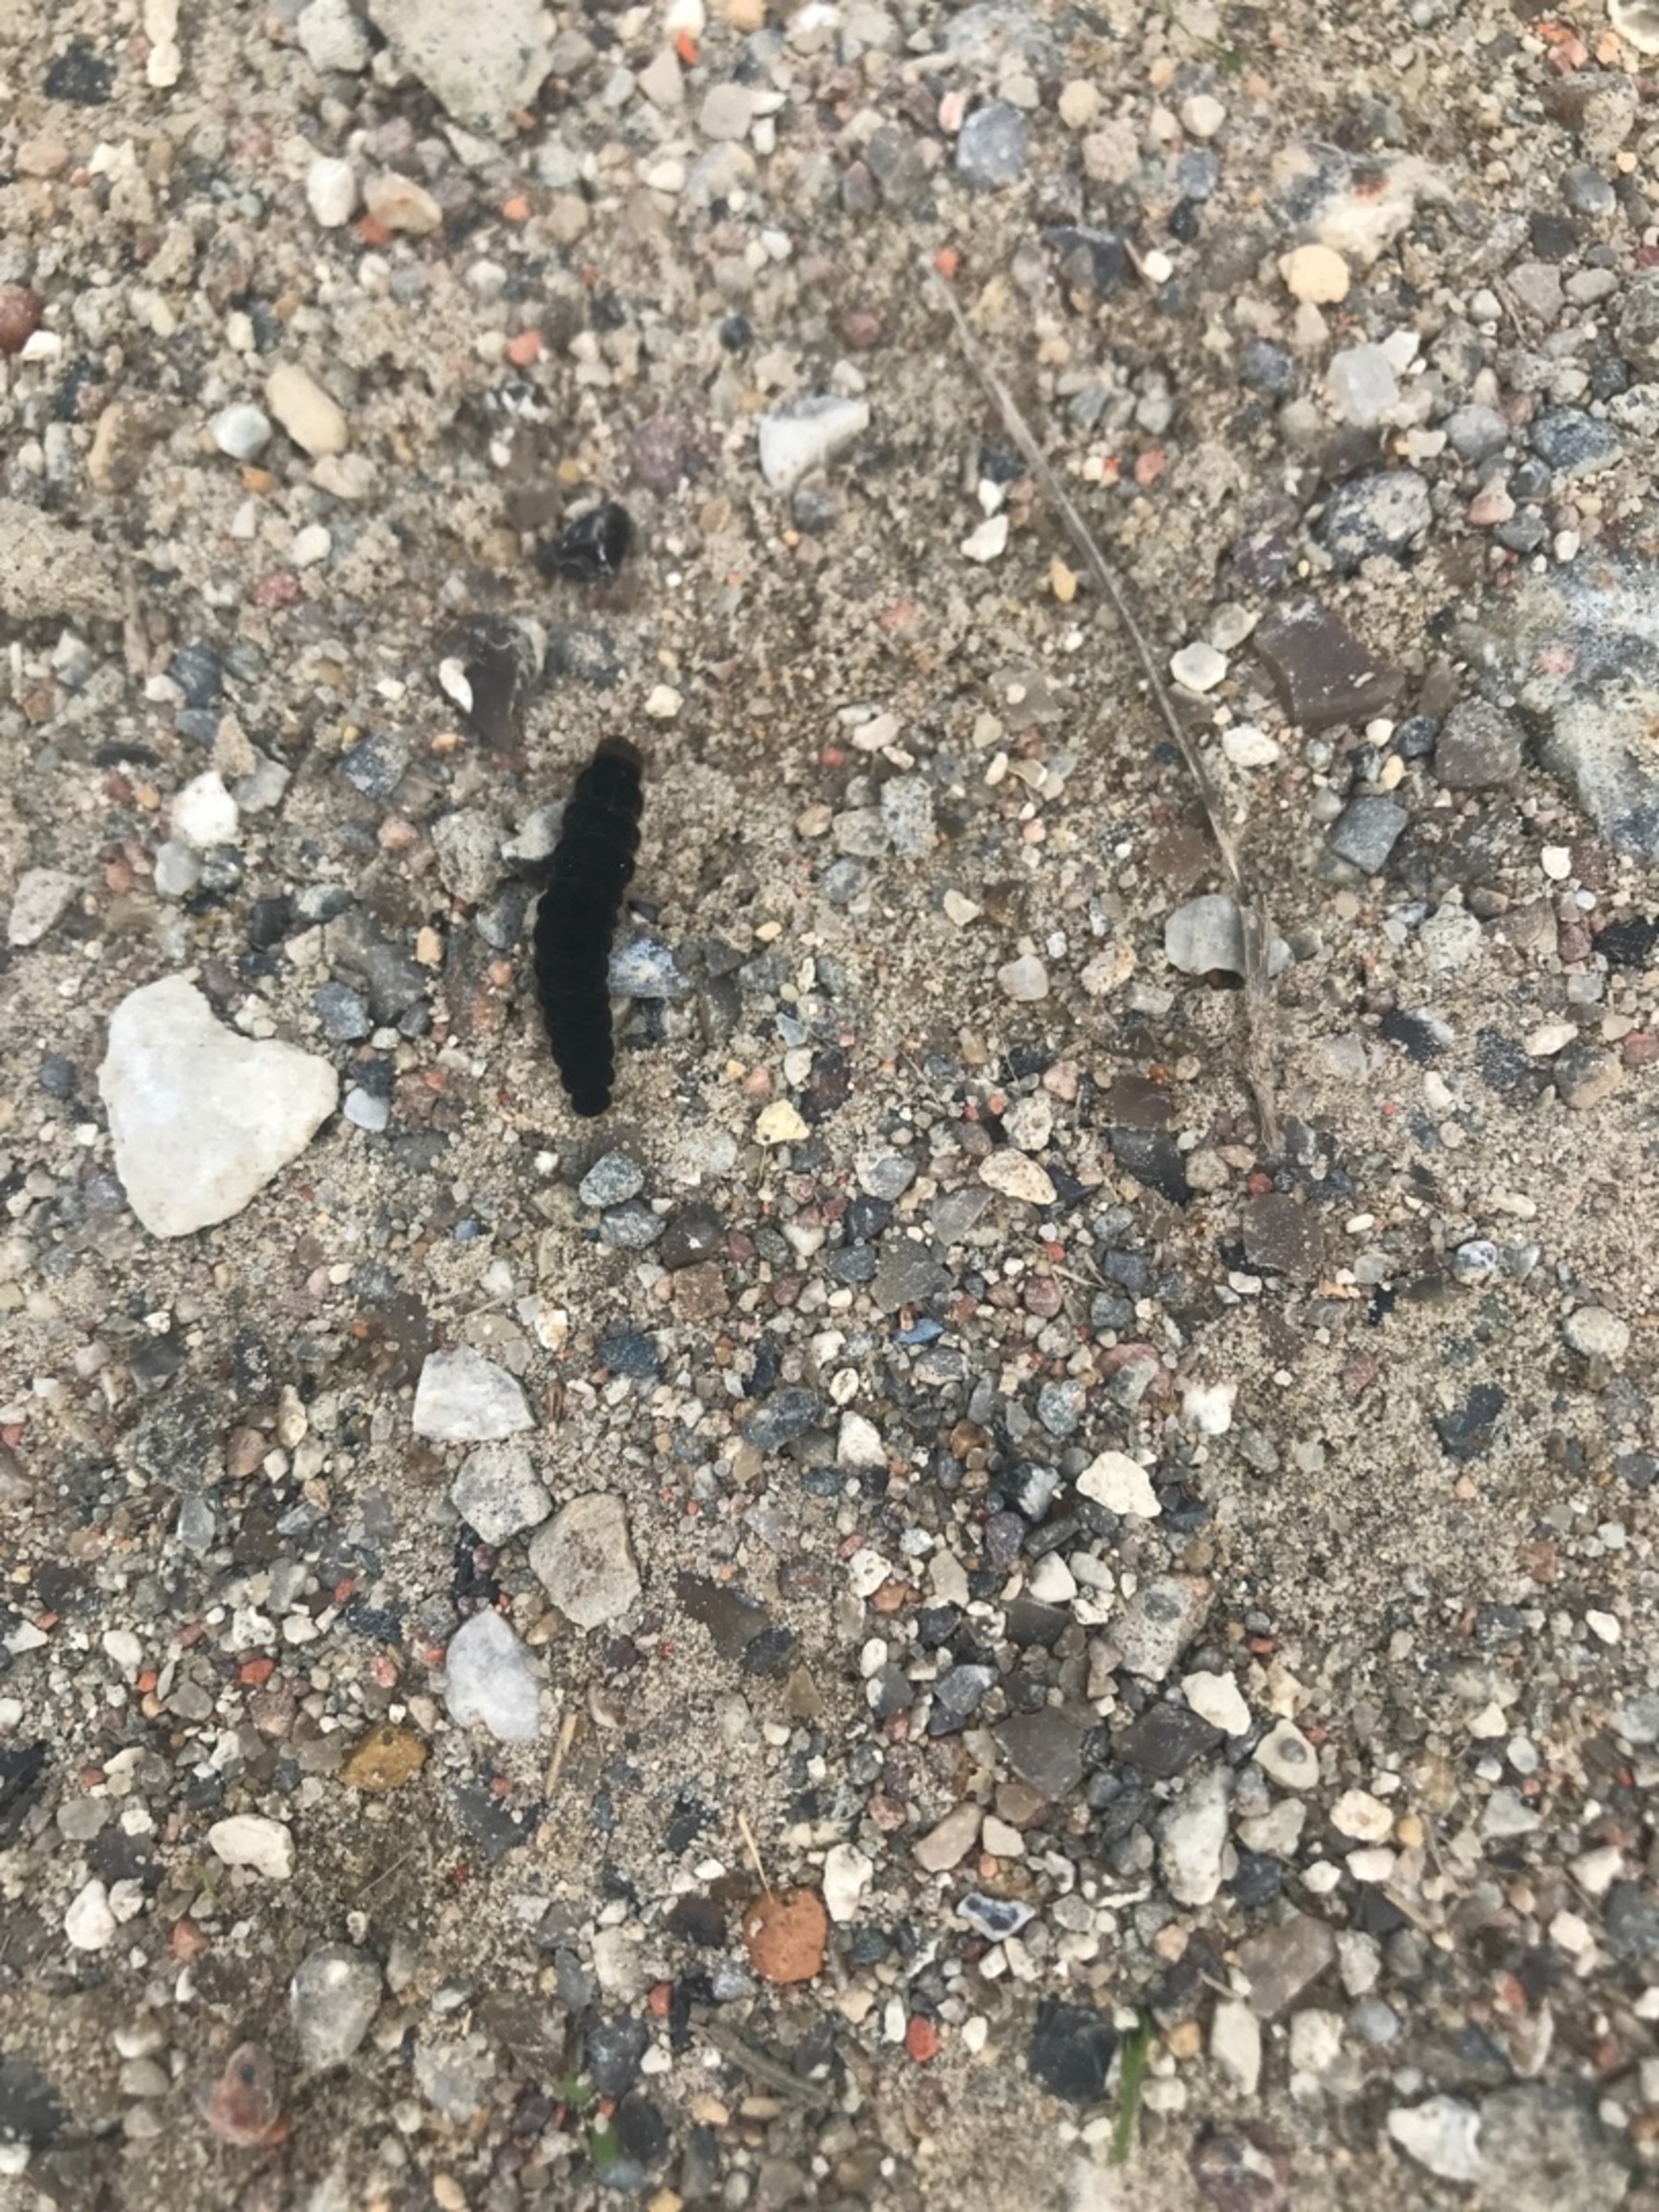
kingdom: Animalia
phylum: Arthropoda
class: Insecta
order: Coleoptera
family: Cantharidae
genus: Cantharis
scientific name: Cantharis
